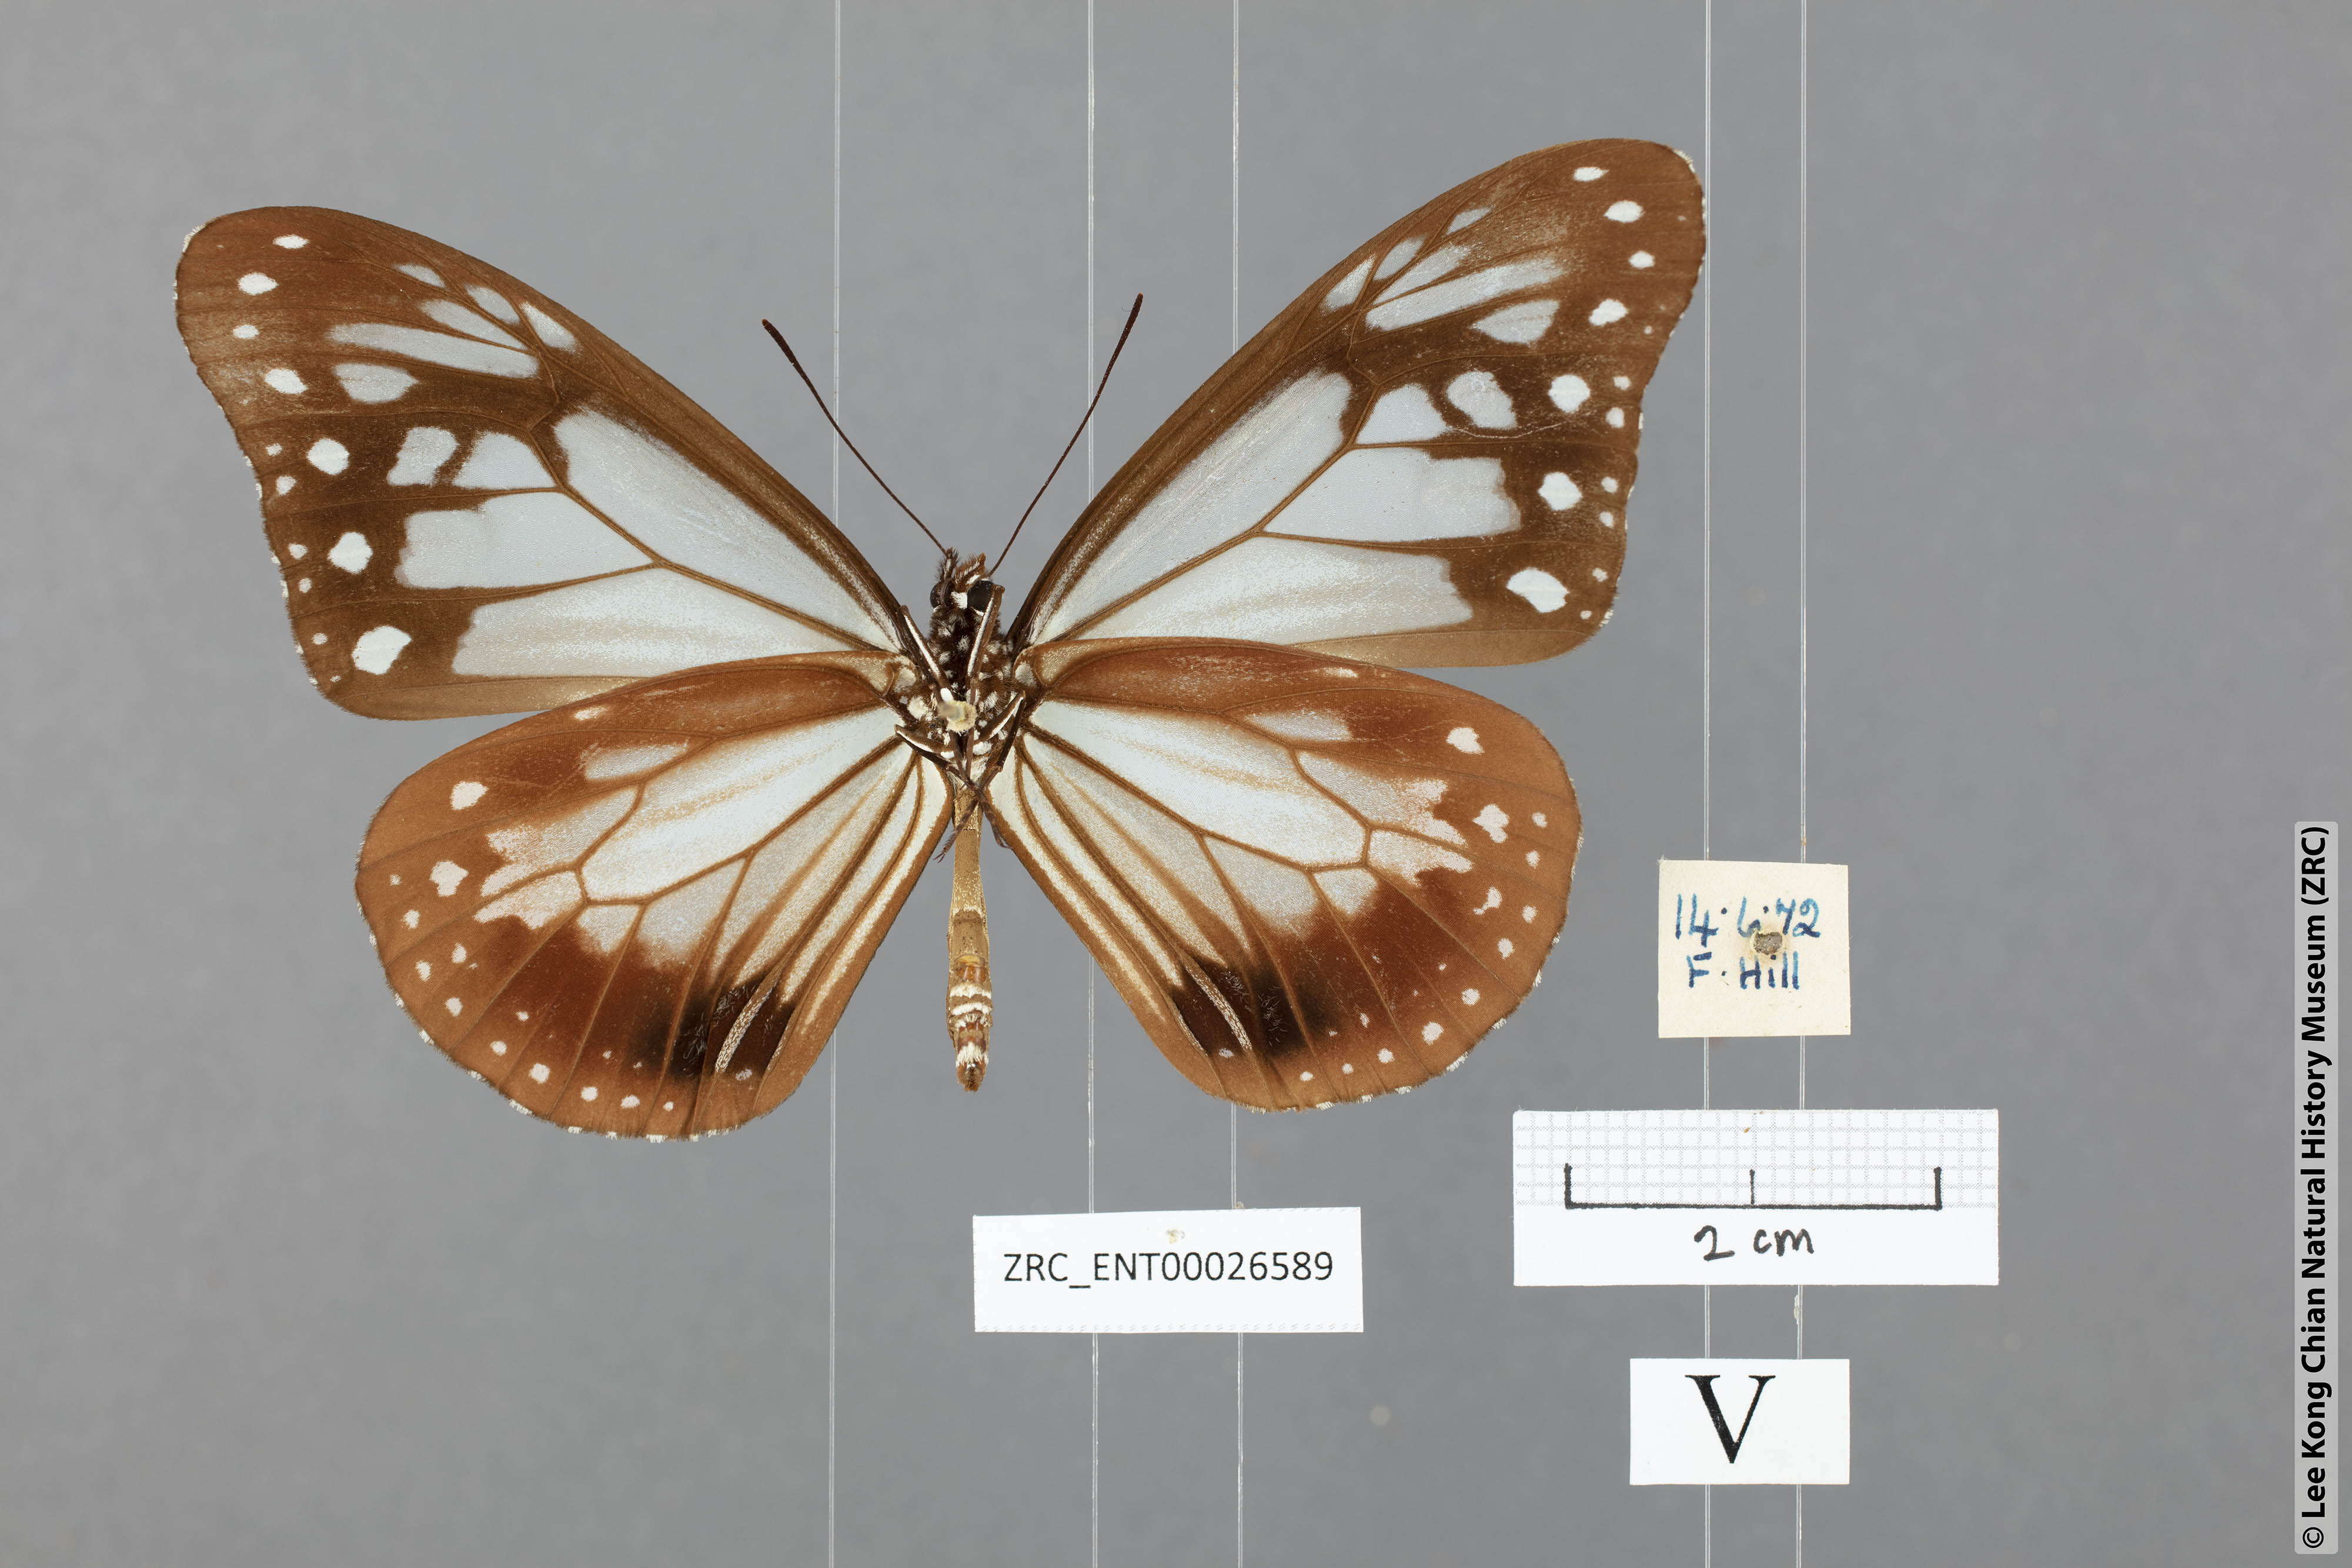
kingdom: Animalia
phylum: Arthropoda
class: Insecta
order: Lepidoptera
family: Nymphalidae
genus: Parantica
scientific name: Parantica sita
